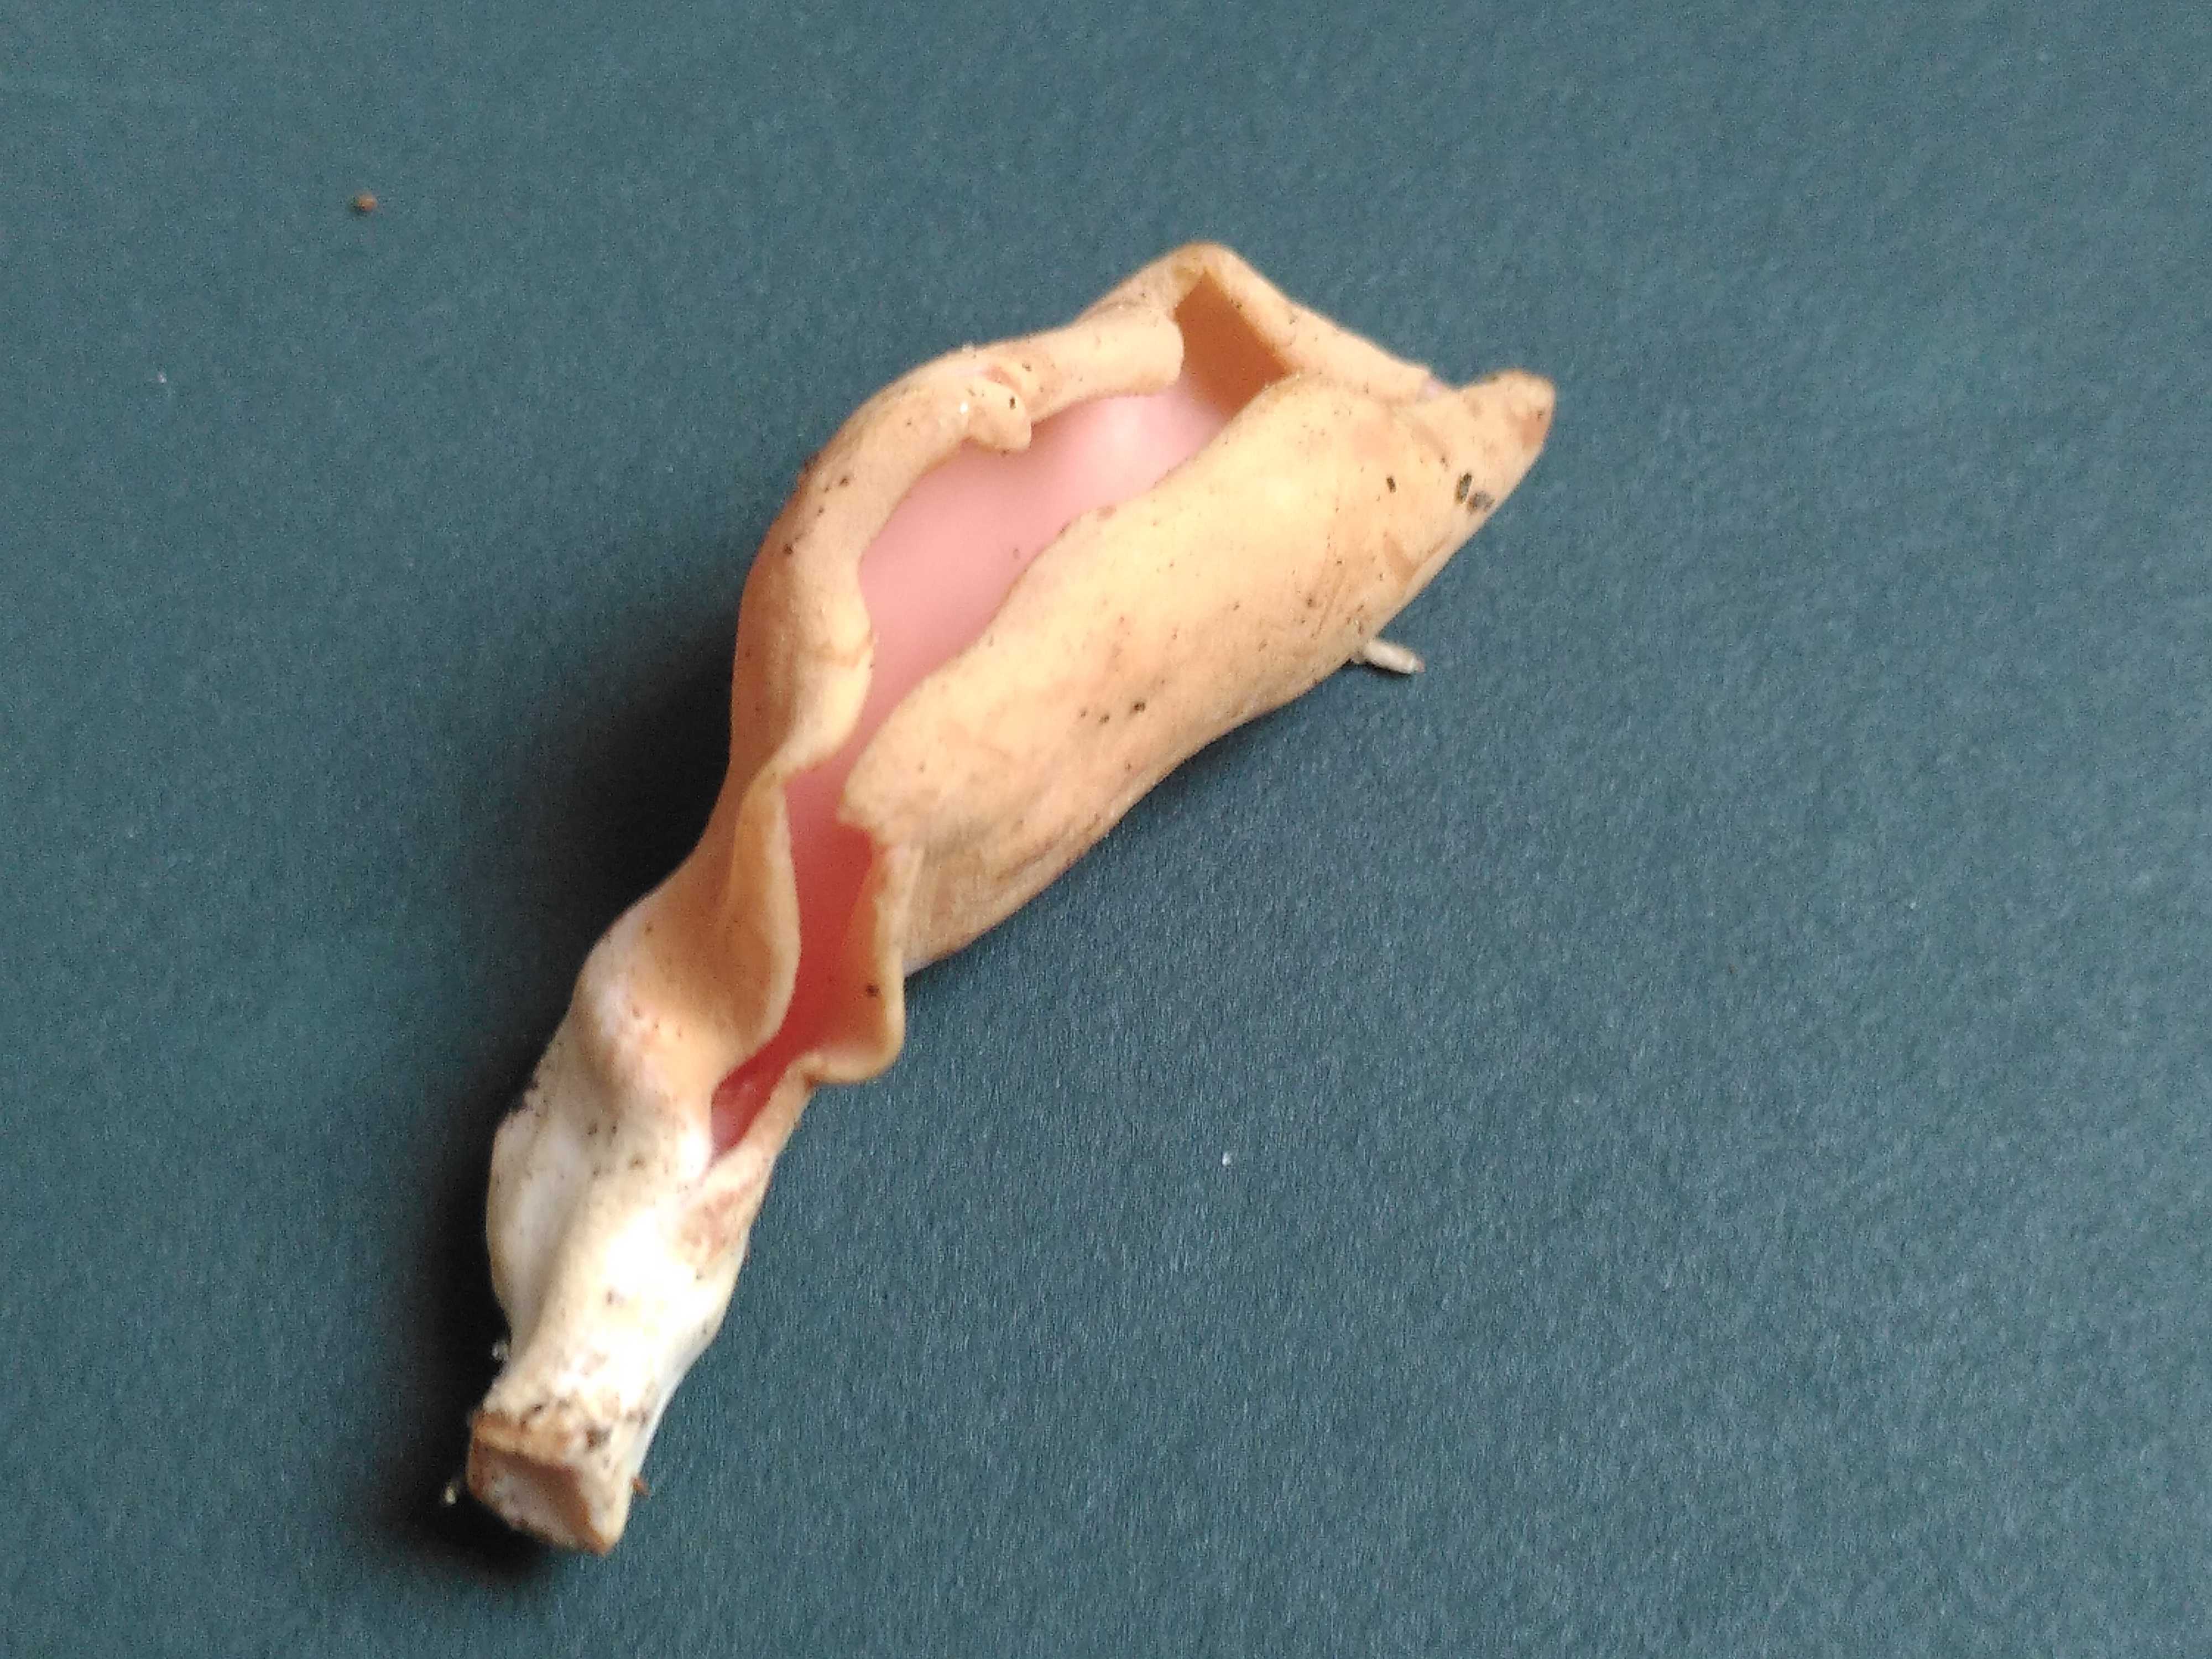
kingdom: Fungi
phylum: Ascomycota
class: Pezizomycetes
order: Pezizales
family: Otideaceae
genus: Otidea
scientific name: Otidea onotica
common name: æsel-ørebæger
